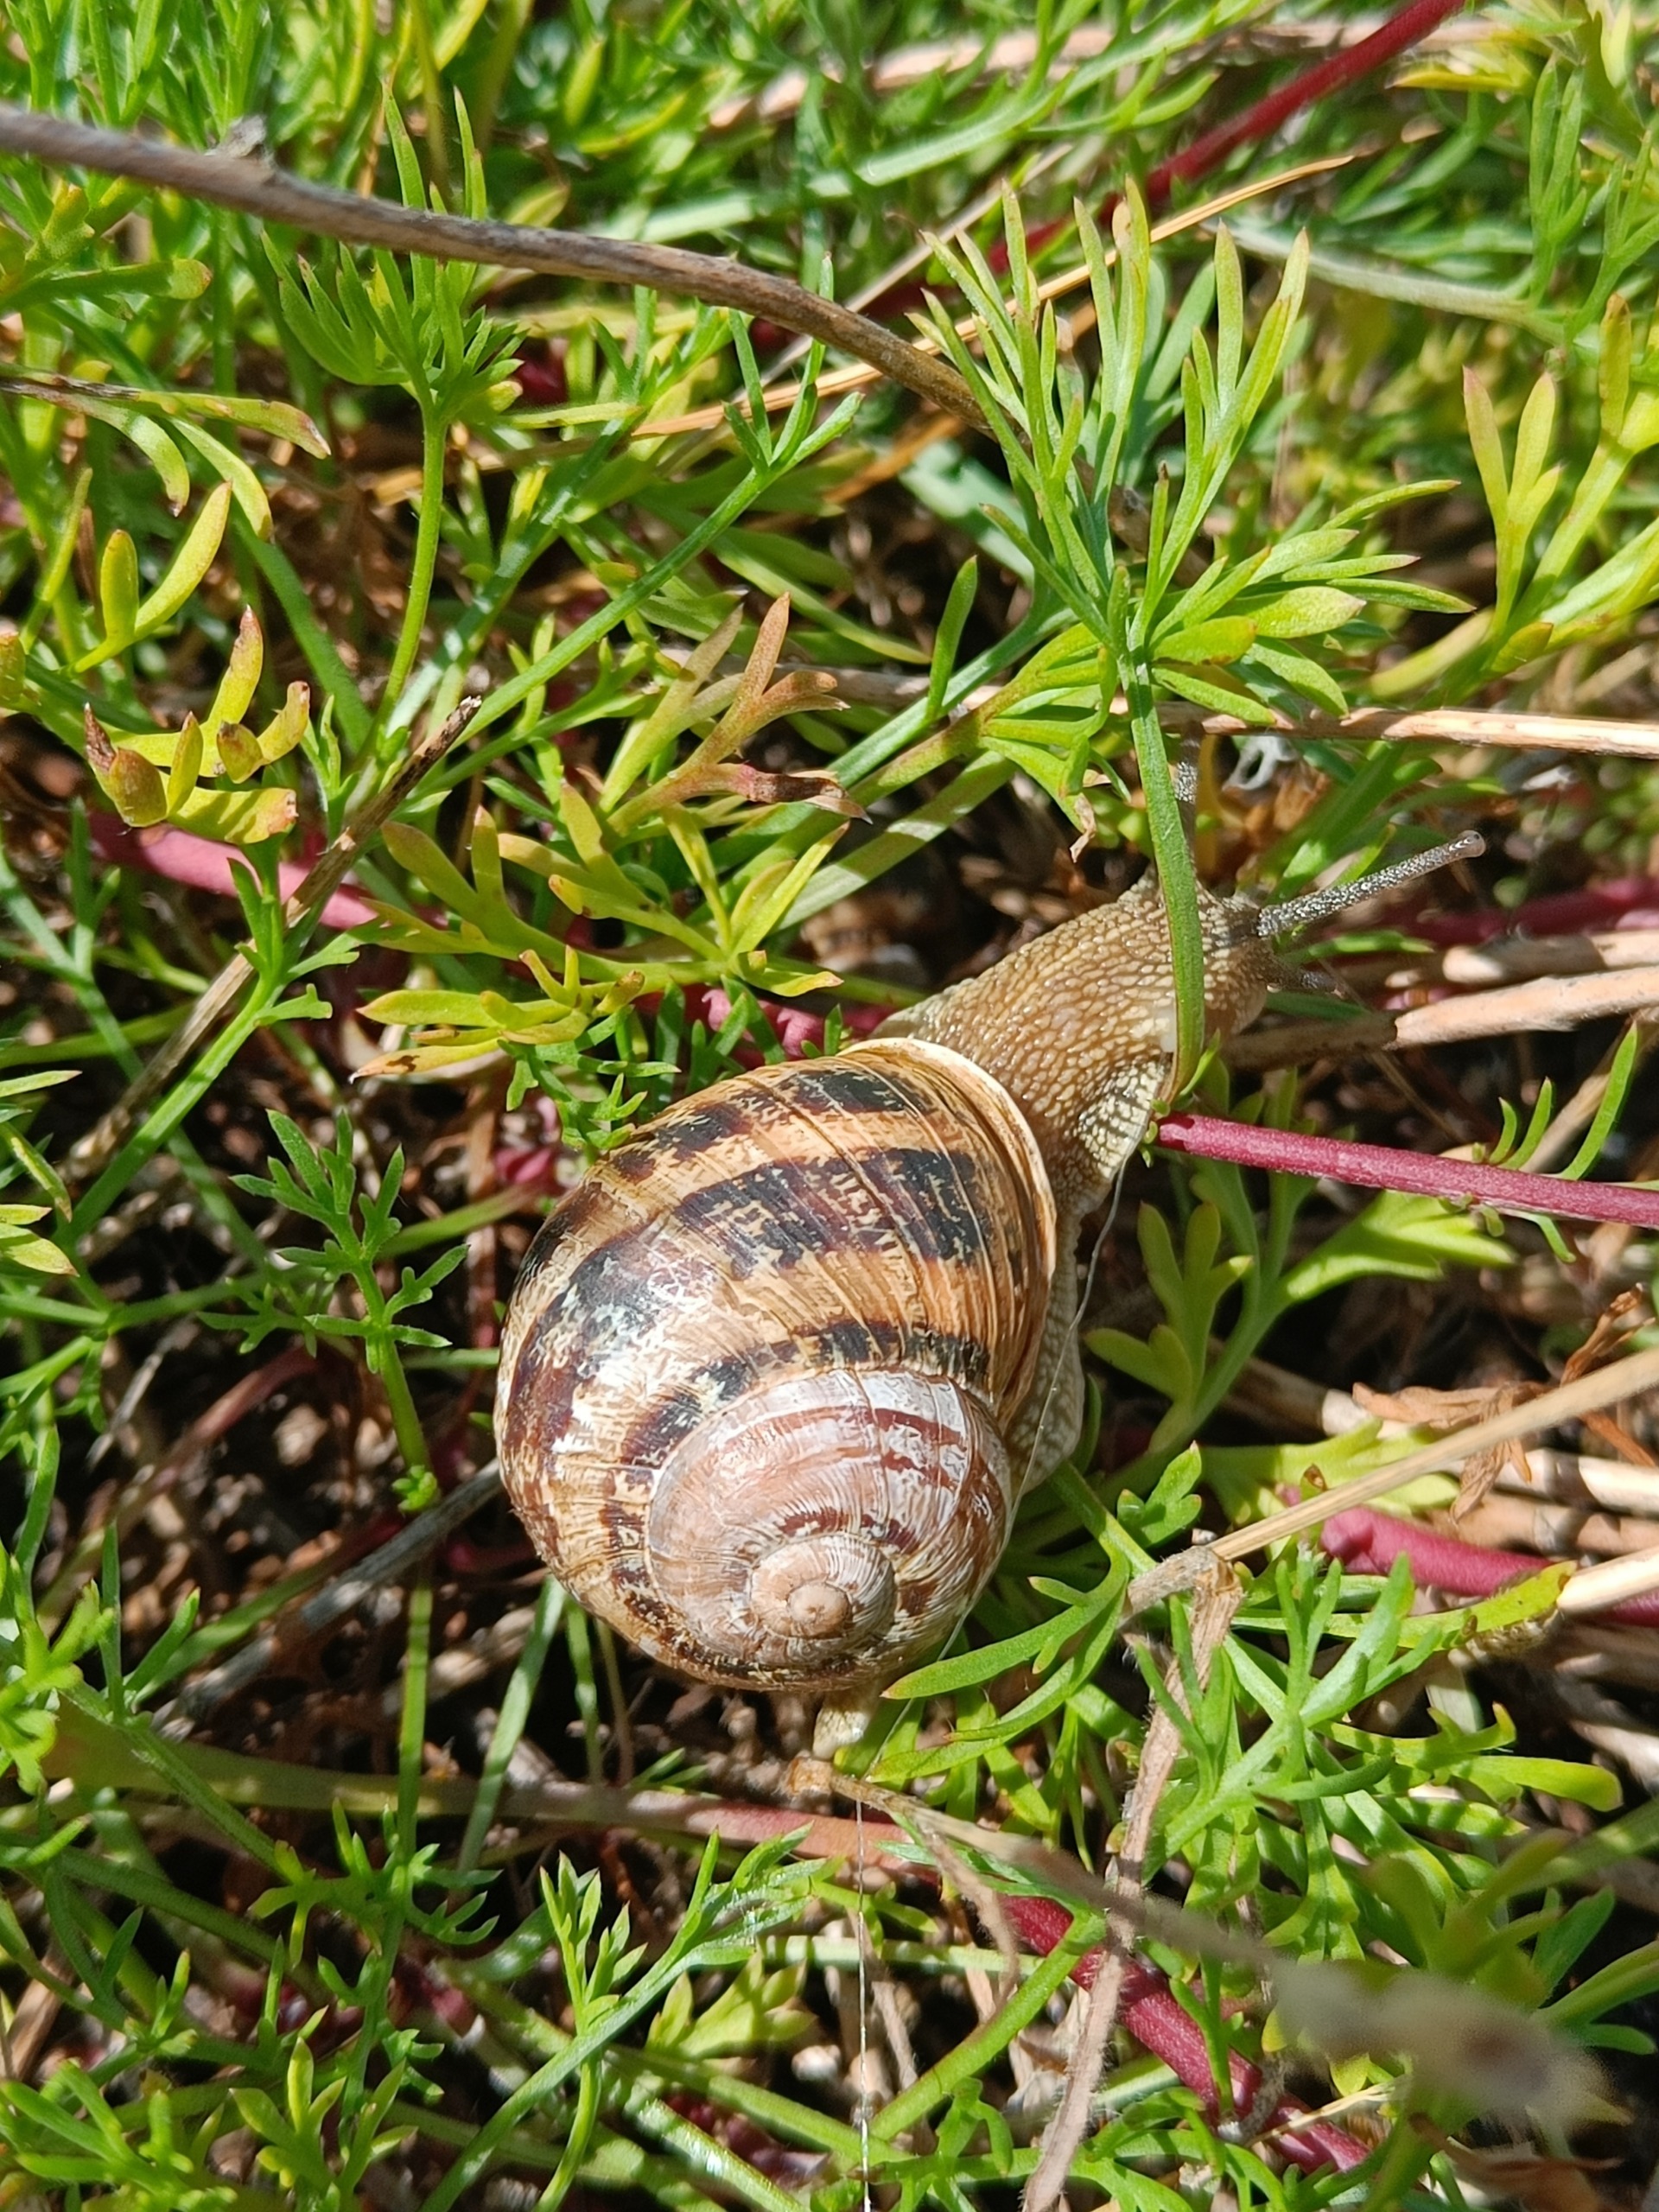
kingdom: Animalia
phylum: Mollusca
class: Gastropoda
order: Stylommatophora
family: Helicidae
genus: Cornu
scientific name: Cornu aspersum
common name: Plettet voldsnegl
